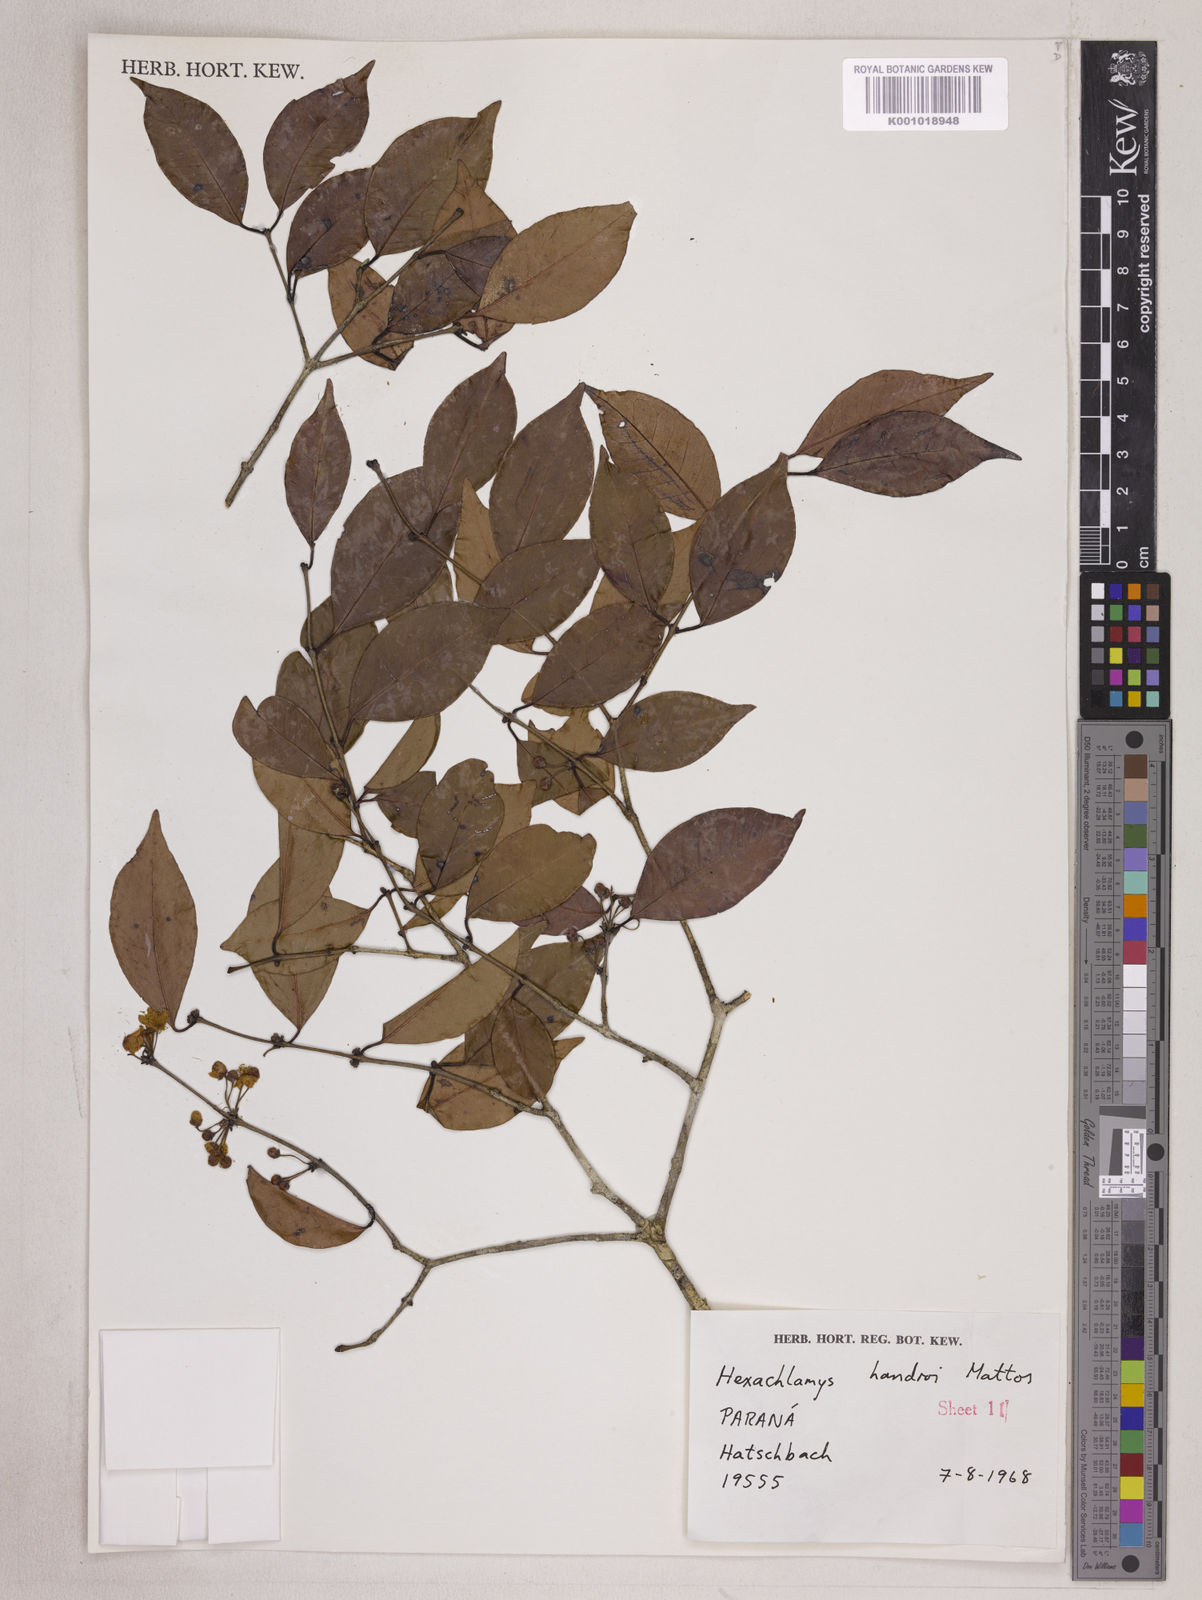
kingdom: Plantae
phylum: Tracheophyta
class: Magnoliopsida
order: Myrtales
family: Myrtaceae
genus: Eugenia
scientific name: Eugenia handroi
